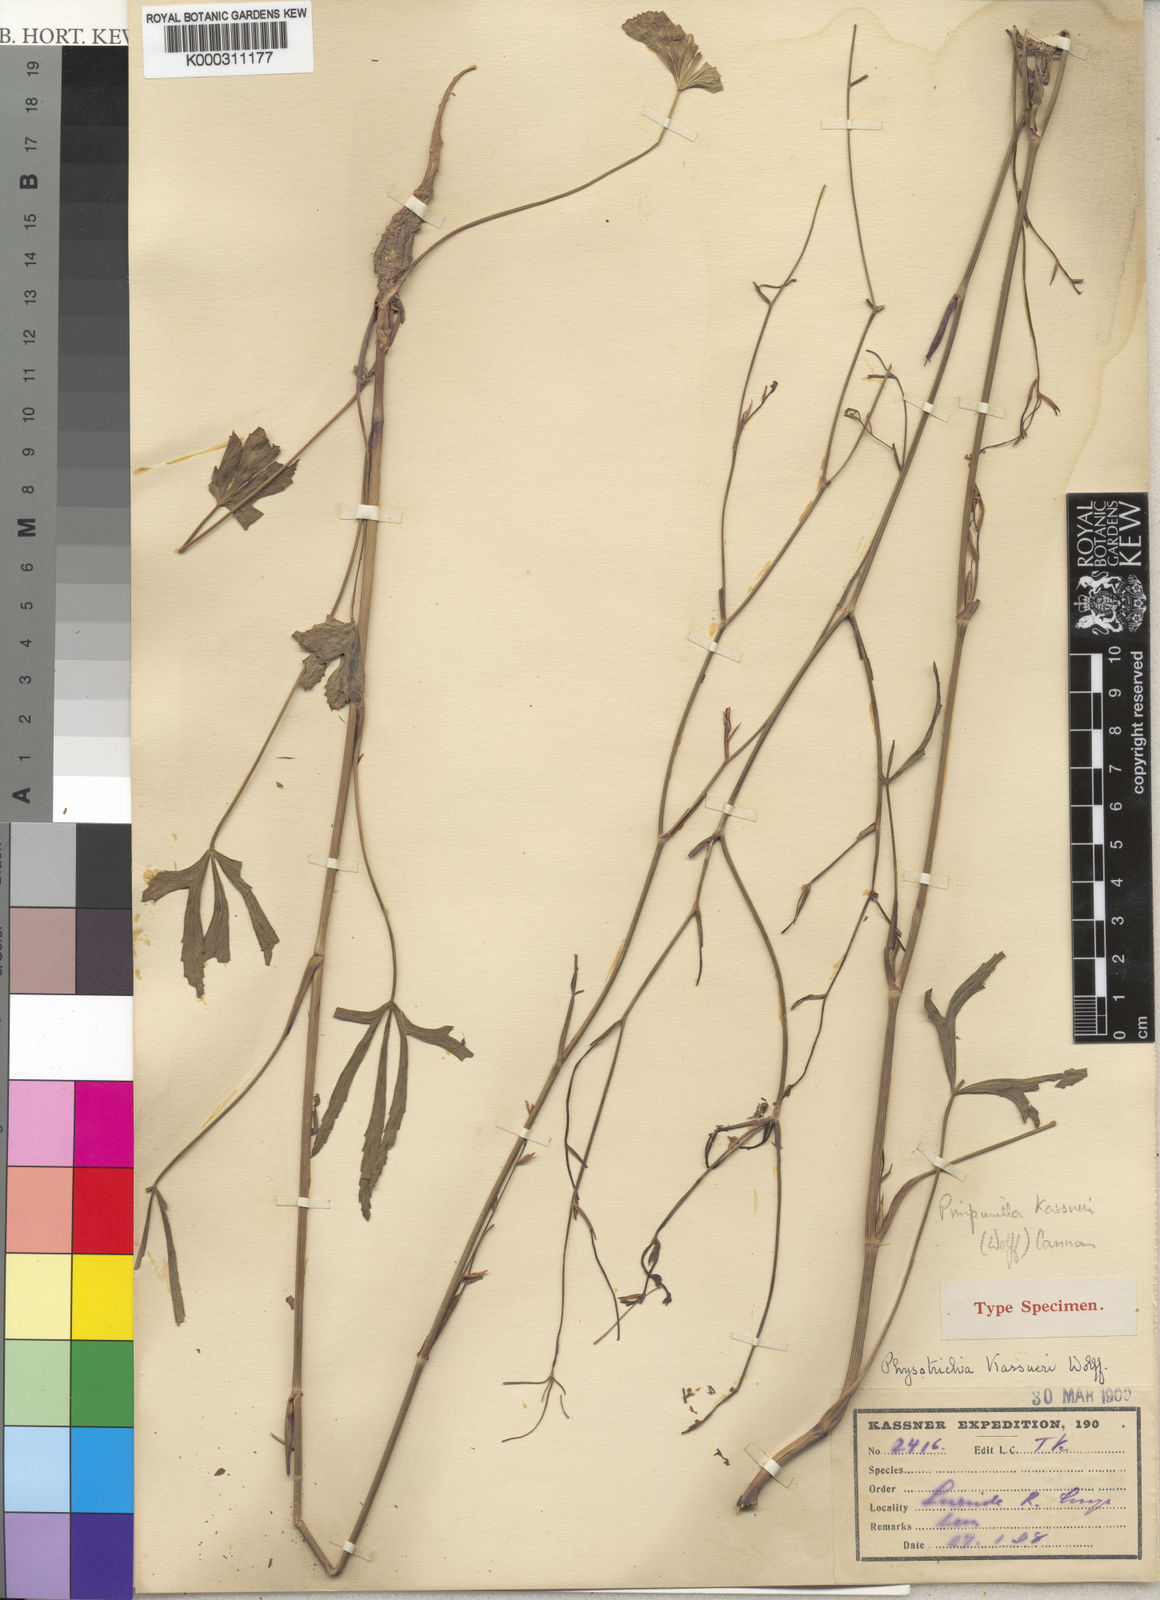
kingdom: Plantae
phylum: Tracheophyta
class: Magnoliopsida
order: Apiales
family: Apiaceae
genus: Pimpinella
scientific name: Pimpinella
